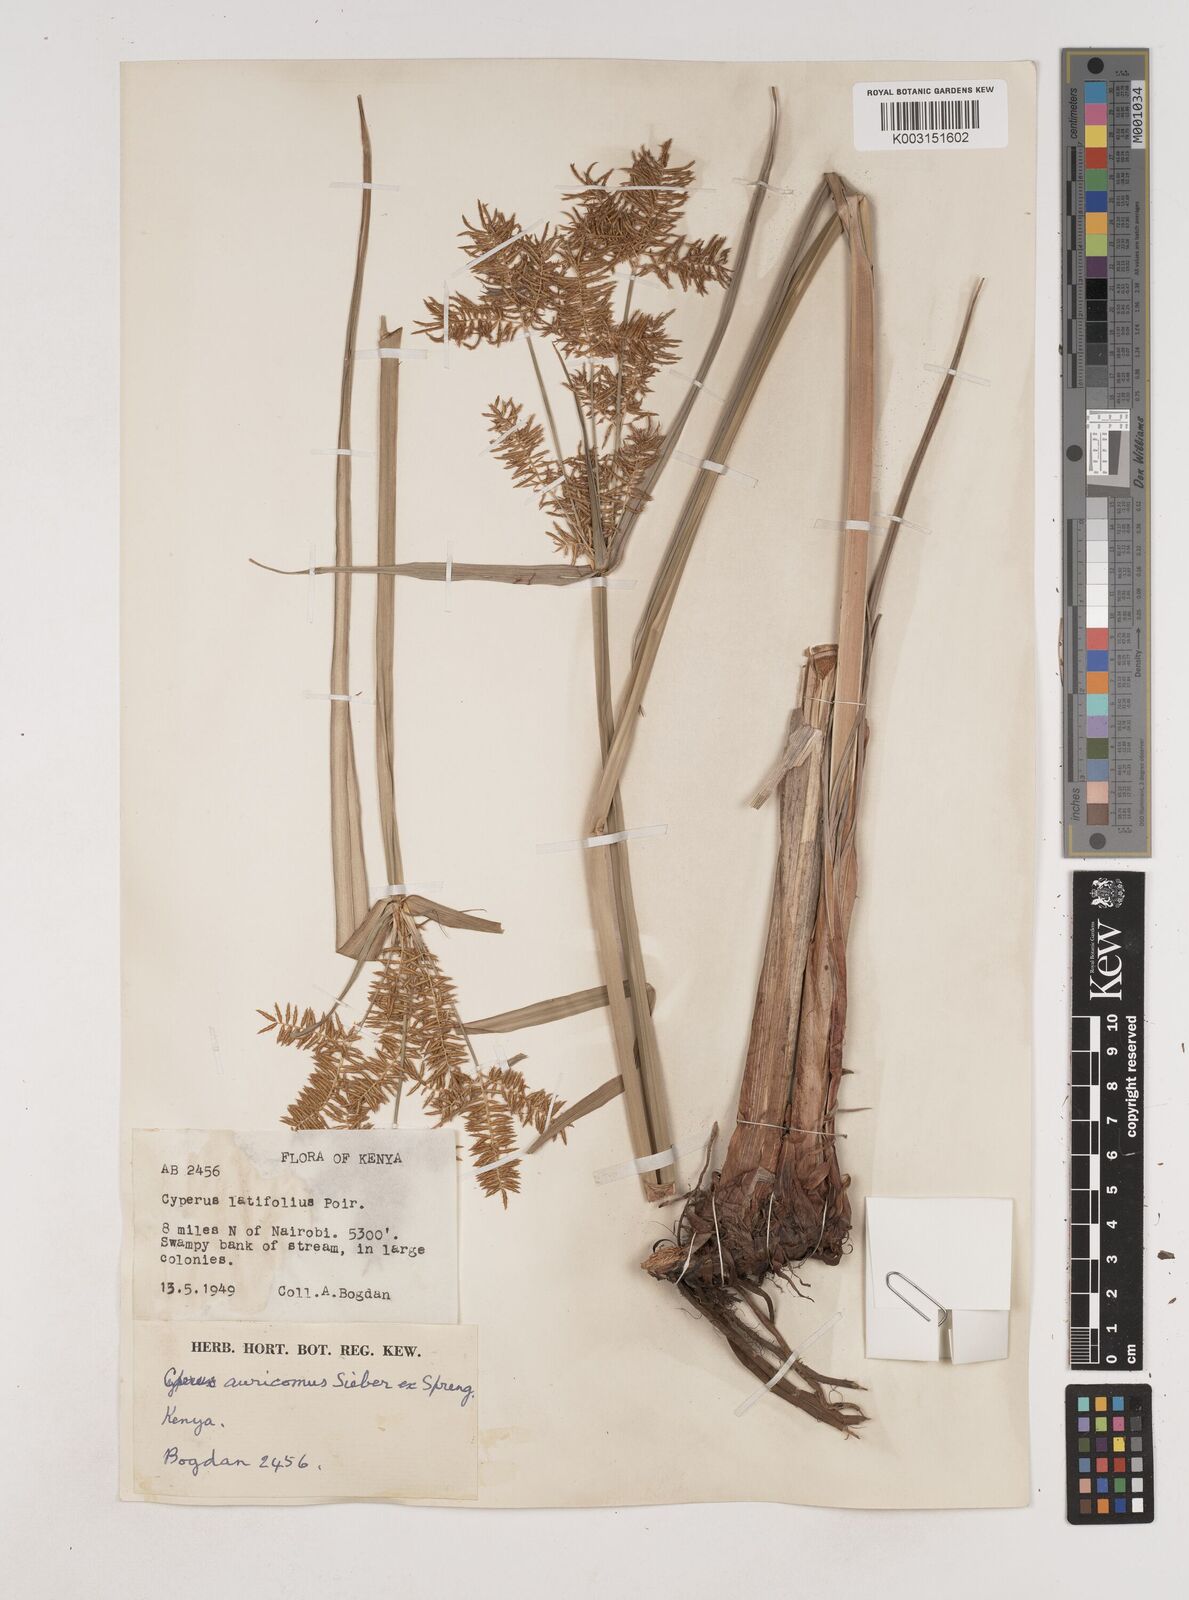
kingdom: Plantae
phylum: Tracheophyta
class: Liliopsida
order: Poales
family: Cyperaceae
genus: Cyperus
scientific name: Cyperus digitatus
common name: Finger flatsedge
